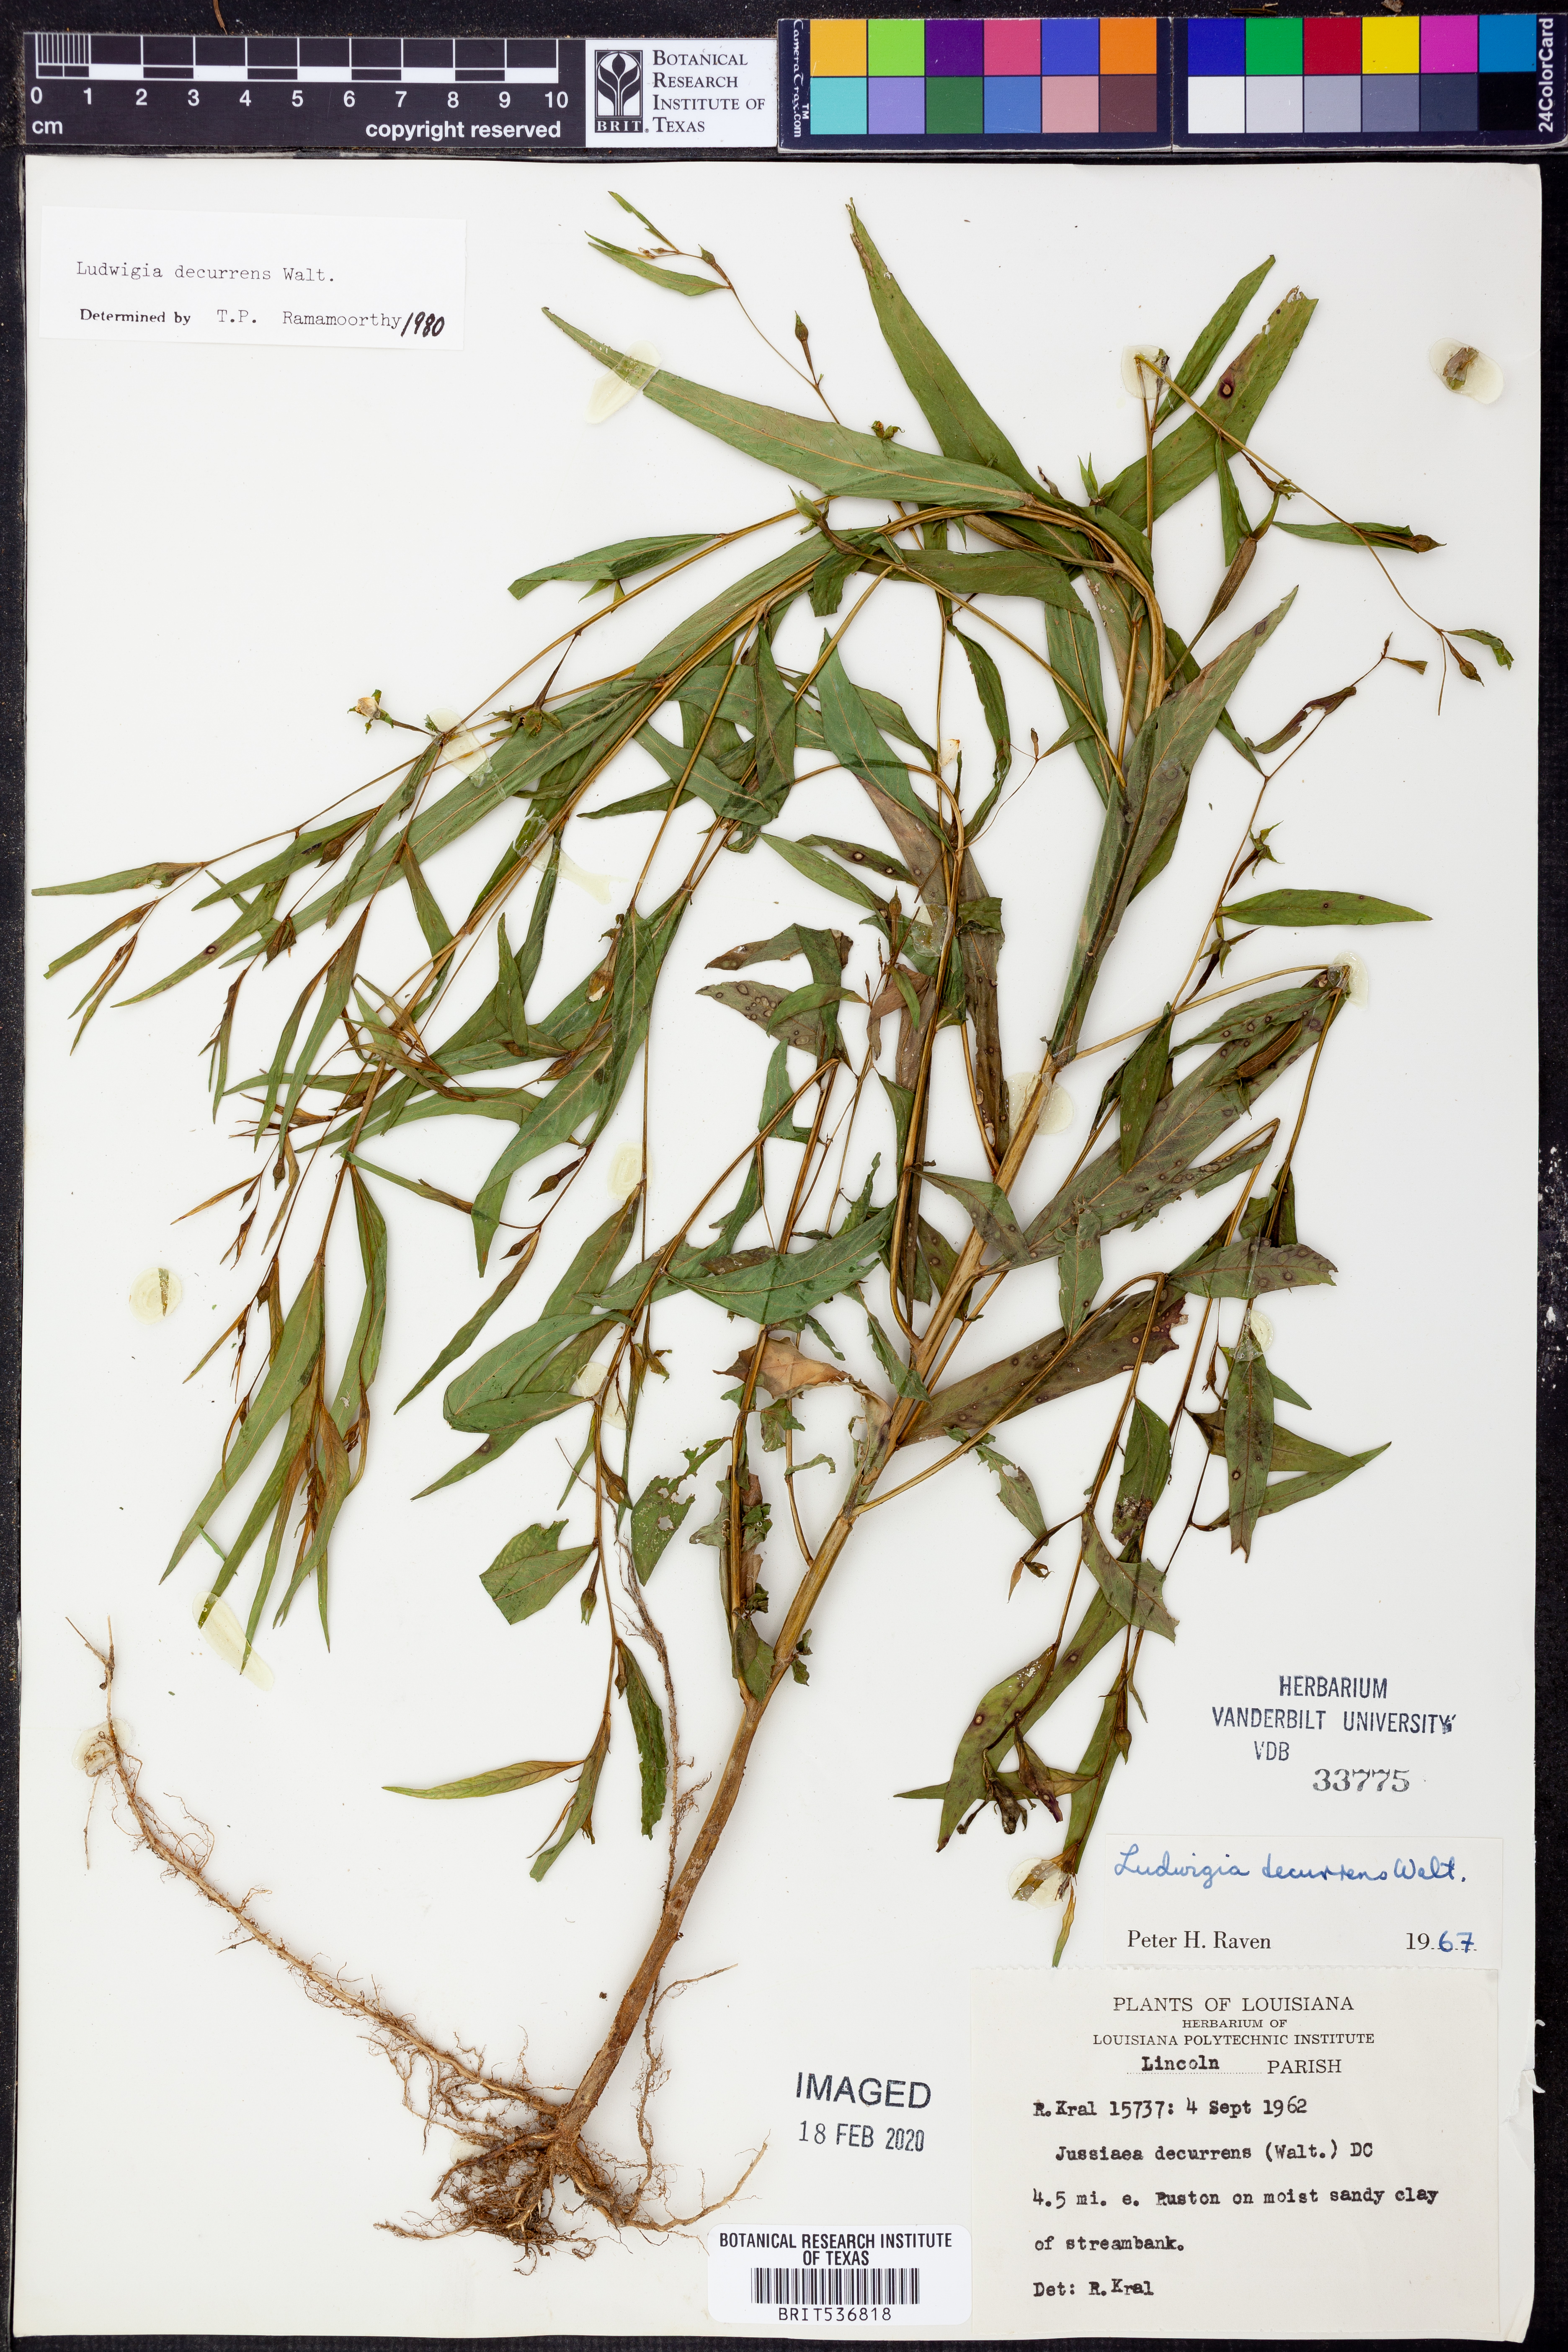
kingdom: Plantae
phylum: Tracheophyta
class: Magnoliopsida
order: Myrtales
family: Onagraceae
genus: Ludwigia
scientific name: Ludwigia decurrens
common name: Winged water-primrose
